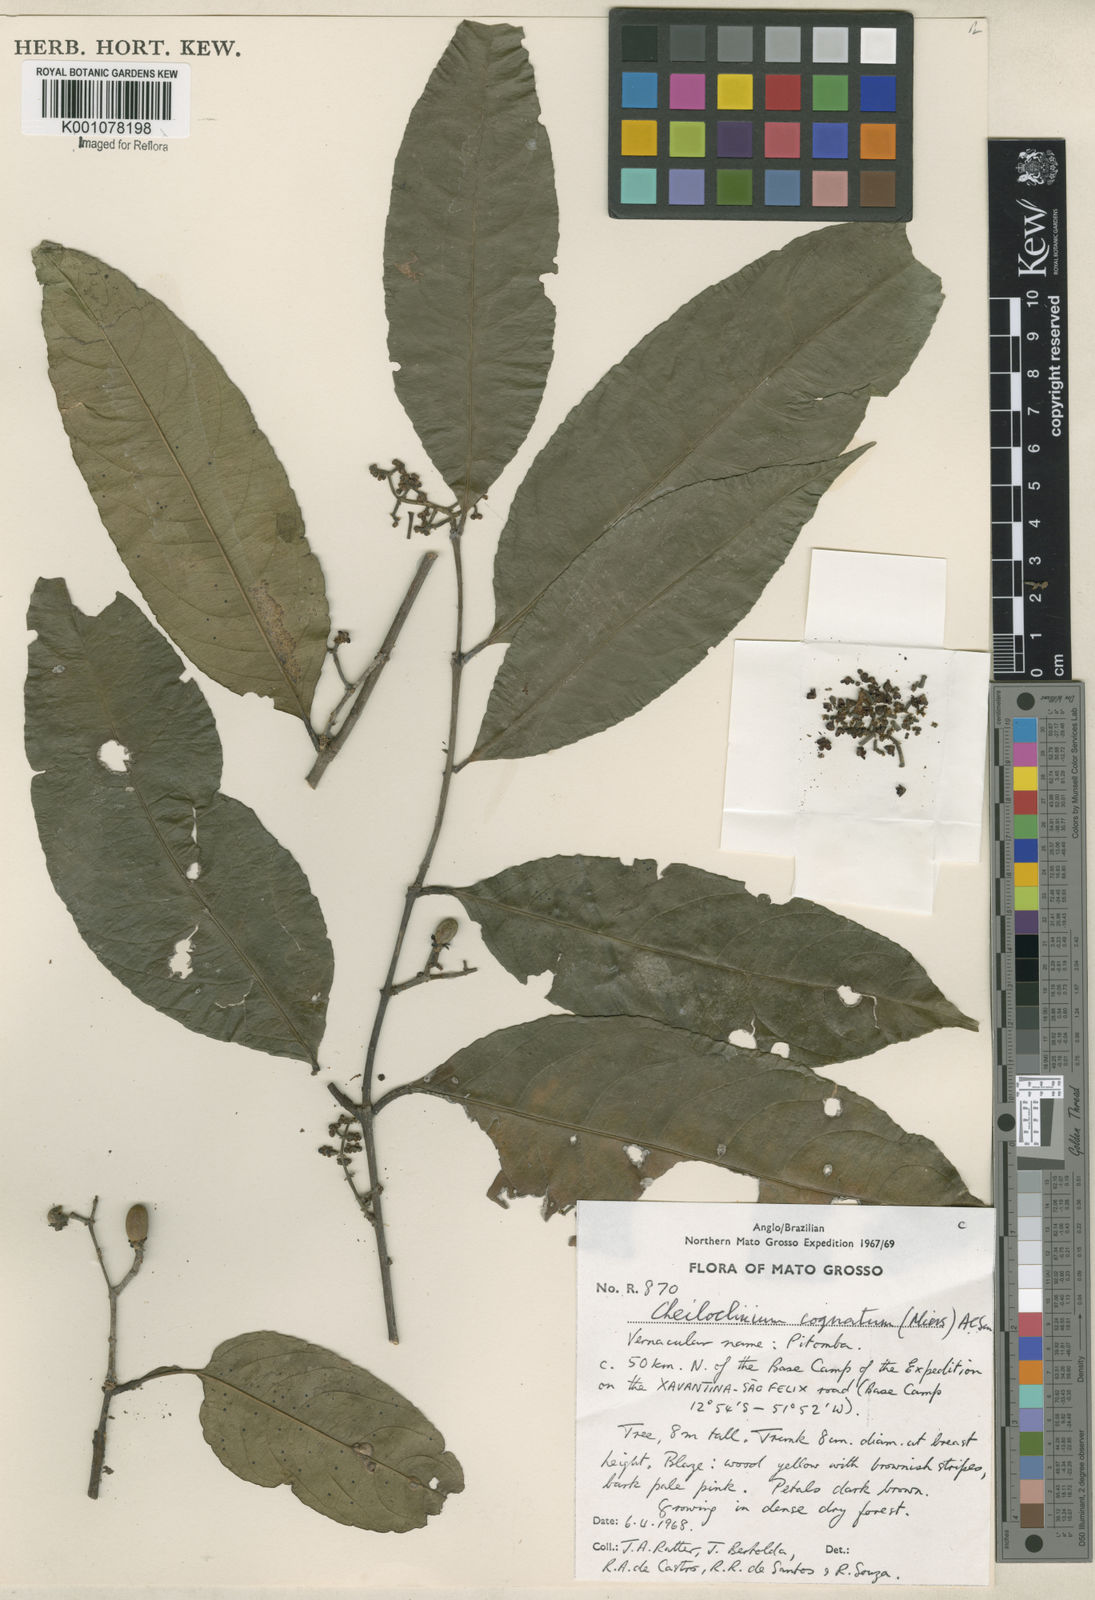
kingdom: Plantae
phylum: Tracheophyta
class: Magnoliopsida
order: Celastrales
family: Celastraceae
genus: Cheiloclinium
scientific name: Cheiloclinium cognatum
